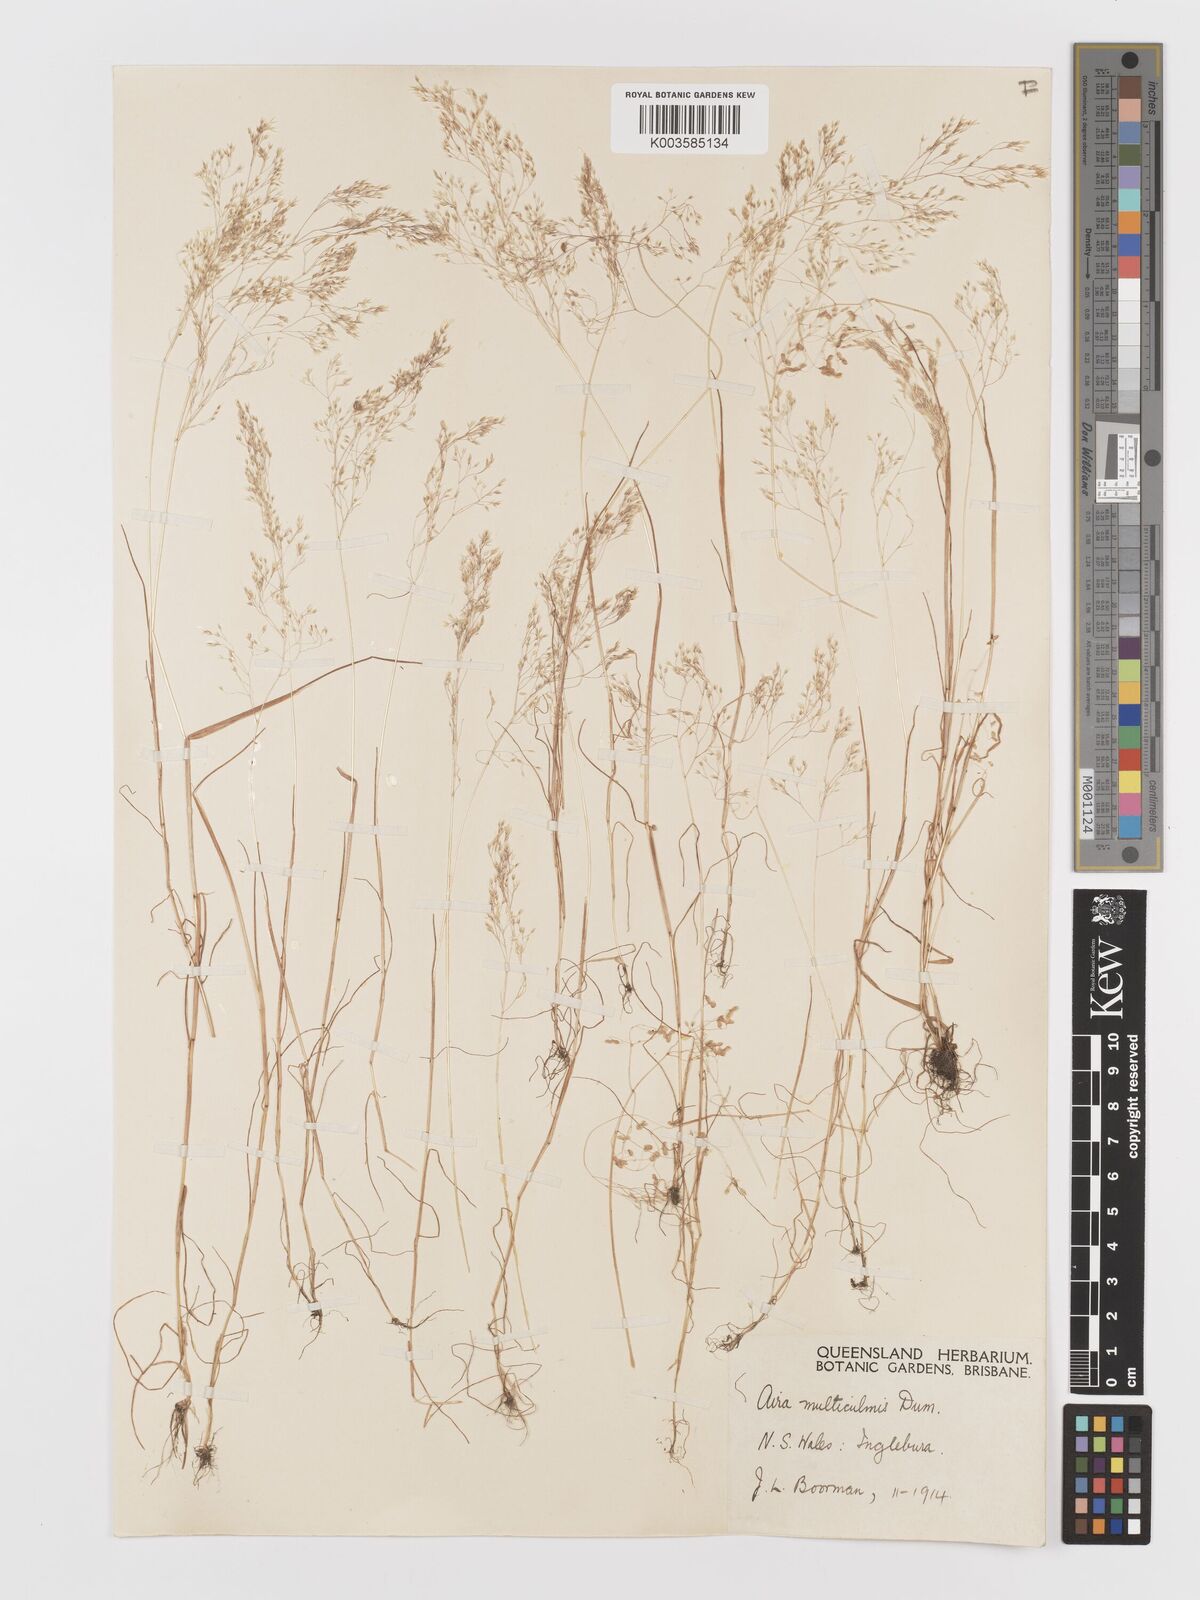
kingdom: Plantae
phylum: Tracheophyta
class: Liliopsida
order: Poales
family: Poaceae
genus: Aira
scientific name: Aira cupaniana
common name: Silver hairgrass
